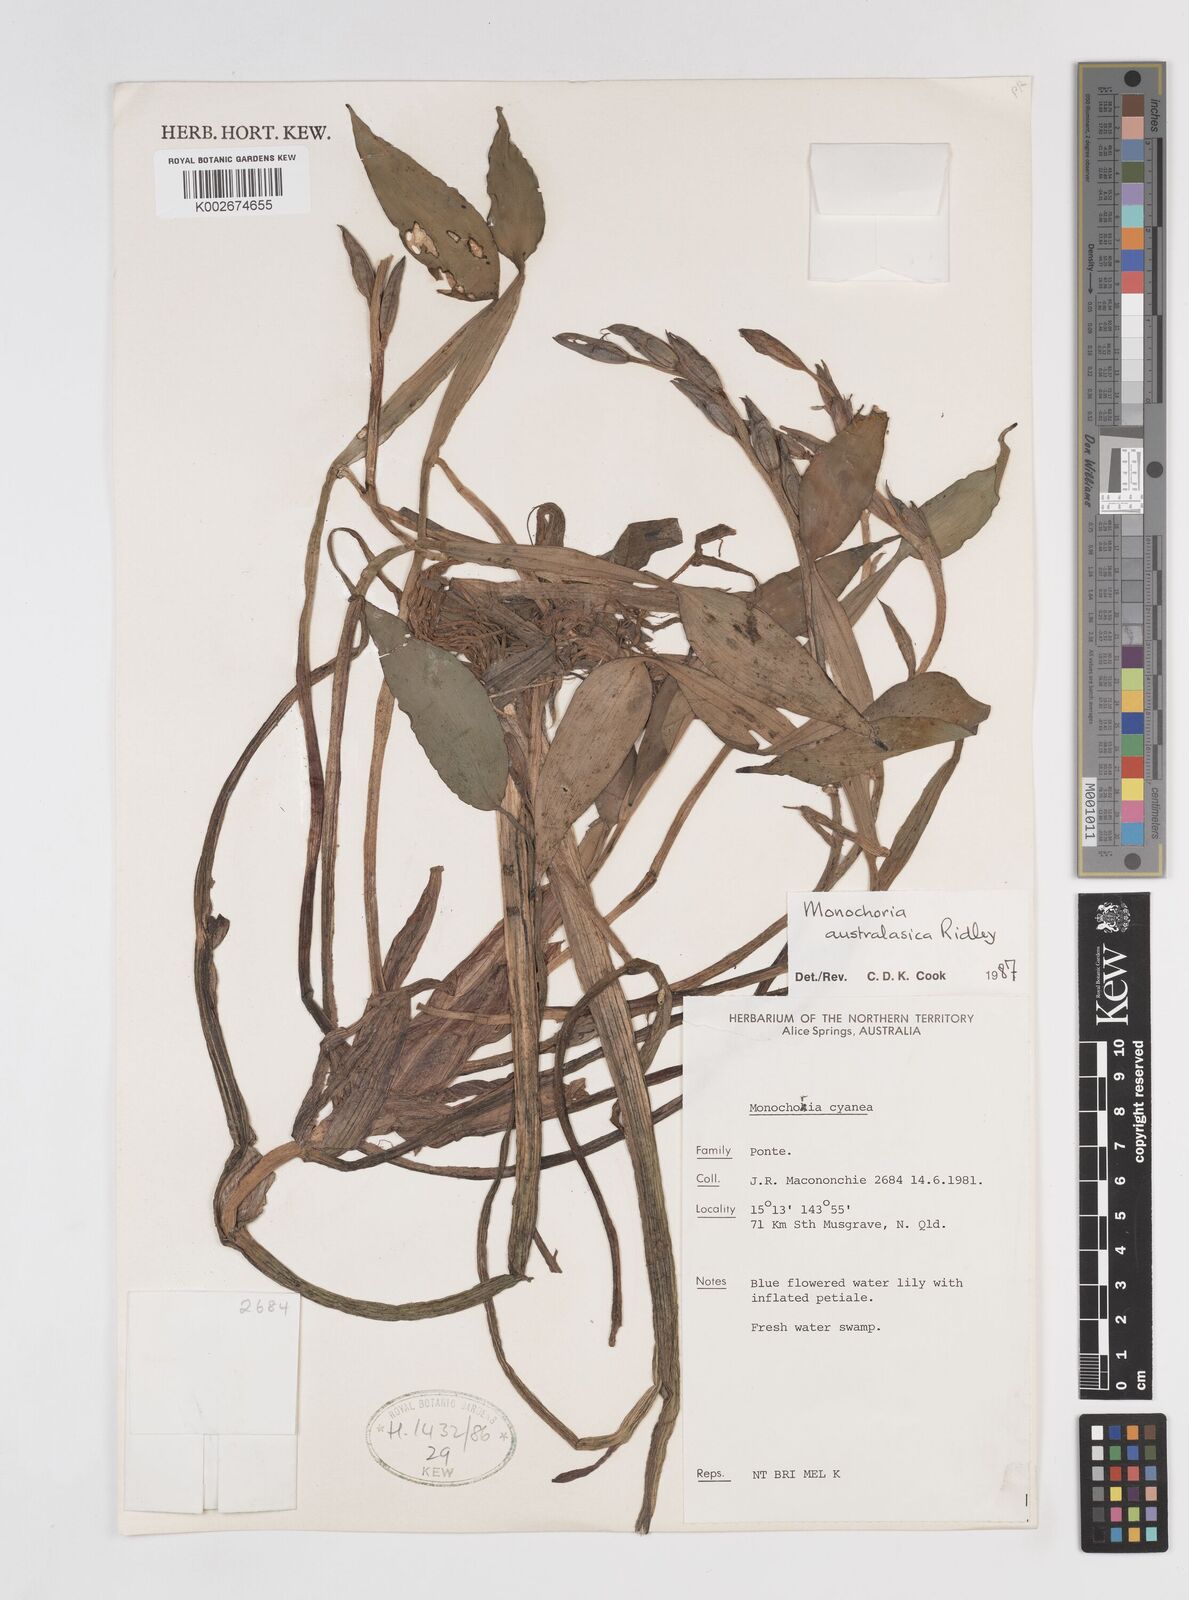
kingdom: Plantae
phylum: Tracheophyta
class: Liliopsida
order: Commelinales
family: Pontederiaceae
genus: Pontederia
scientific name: Pontederia australasica
